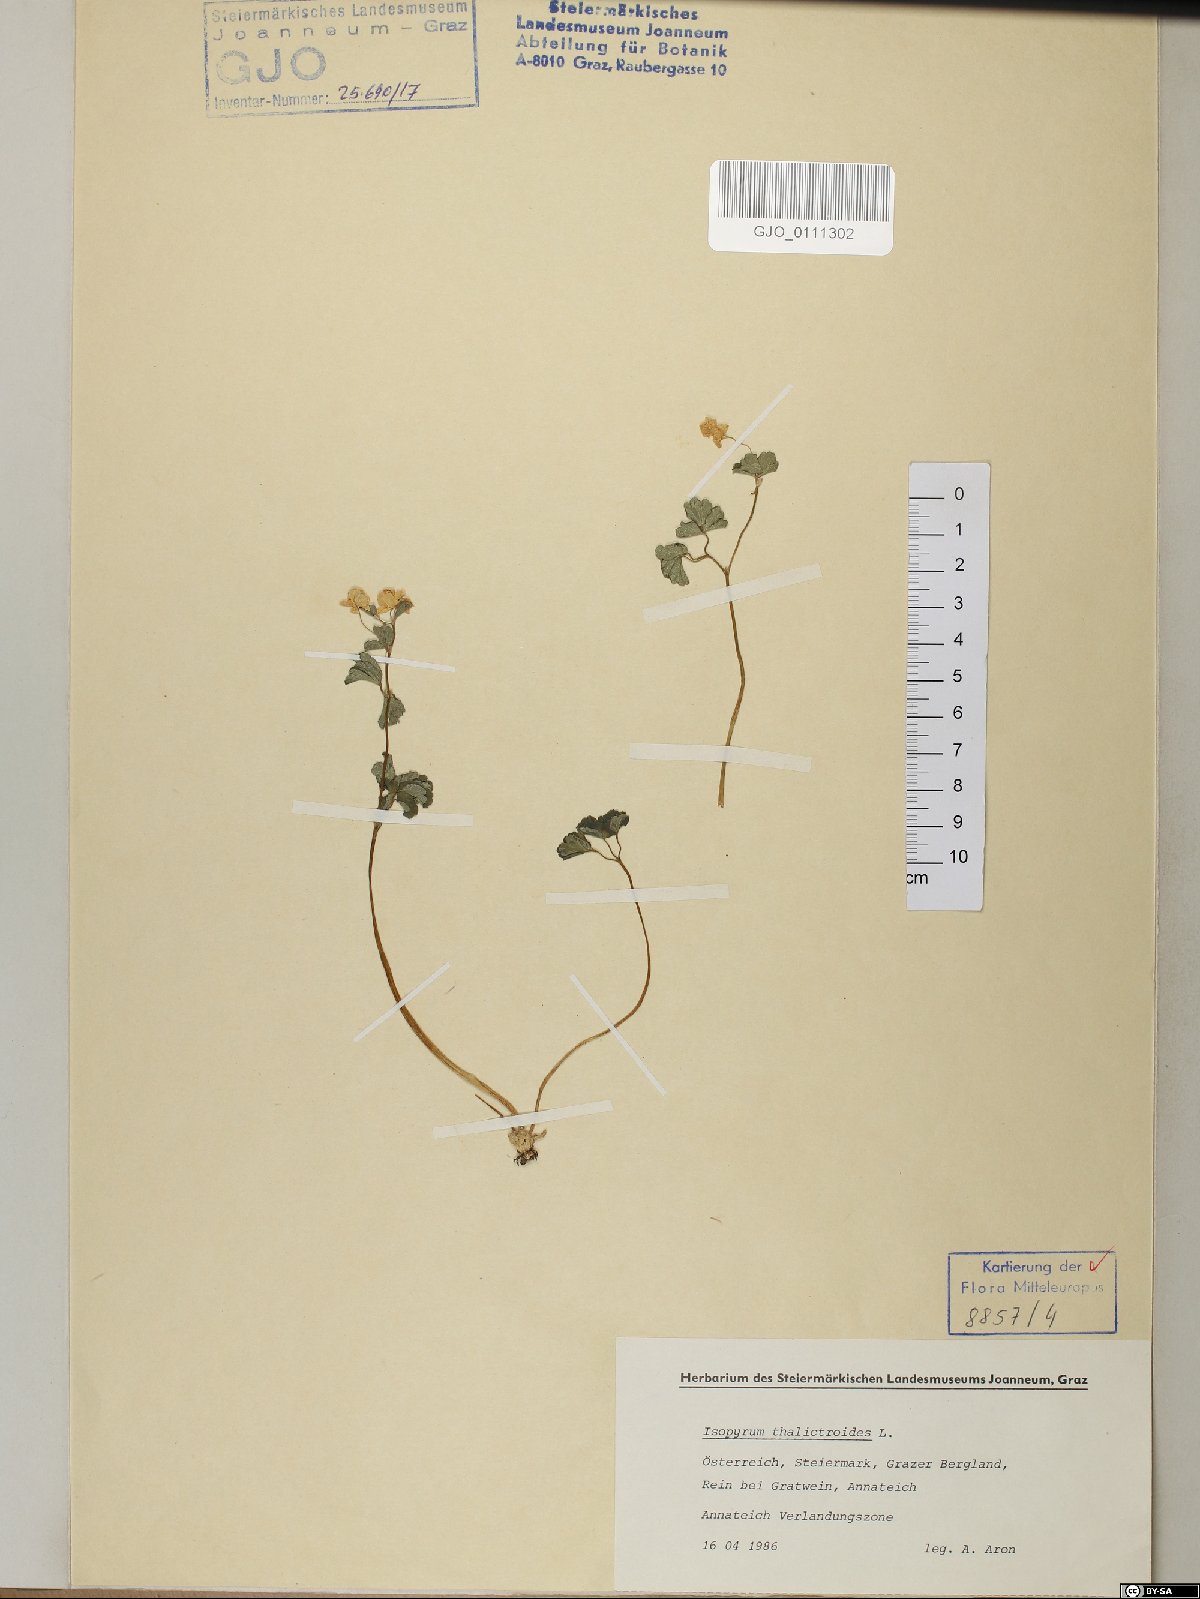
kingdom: Plantae
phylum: Tracheophyta
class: Magnoliopsida
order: Ranunculales
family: Ranunculaceae
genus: Isopyrum
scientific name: Isopyrum thalictroides
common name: Isopyrum
